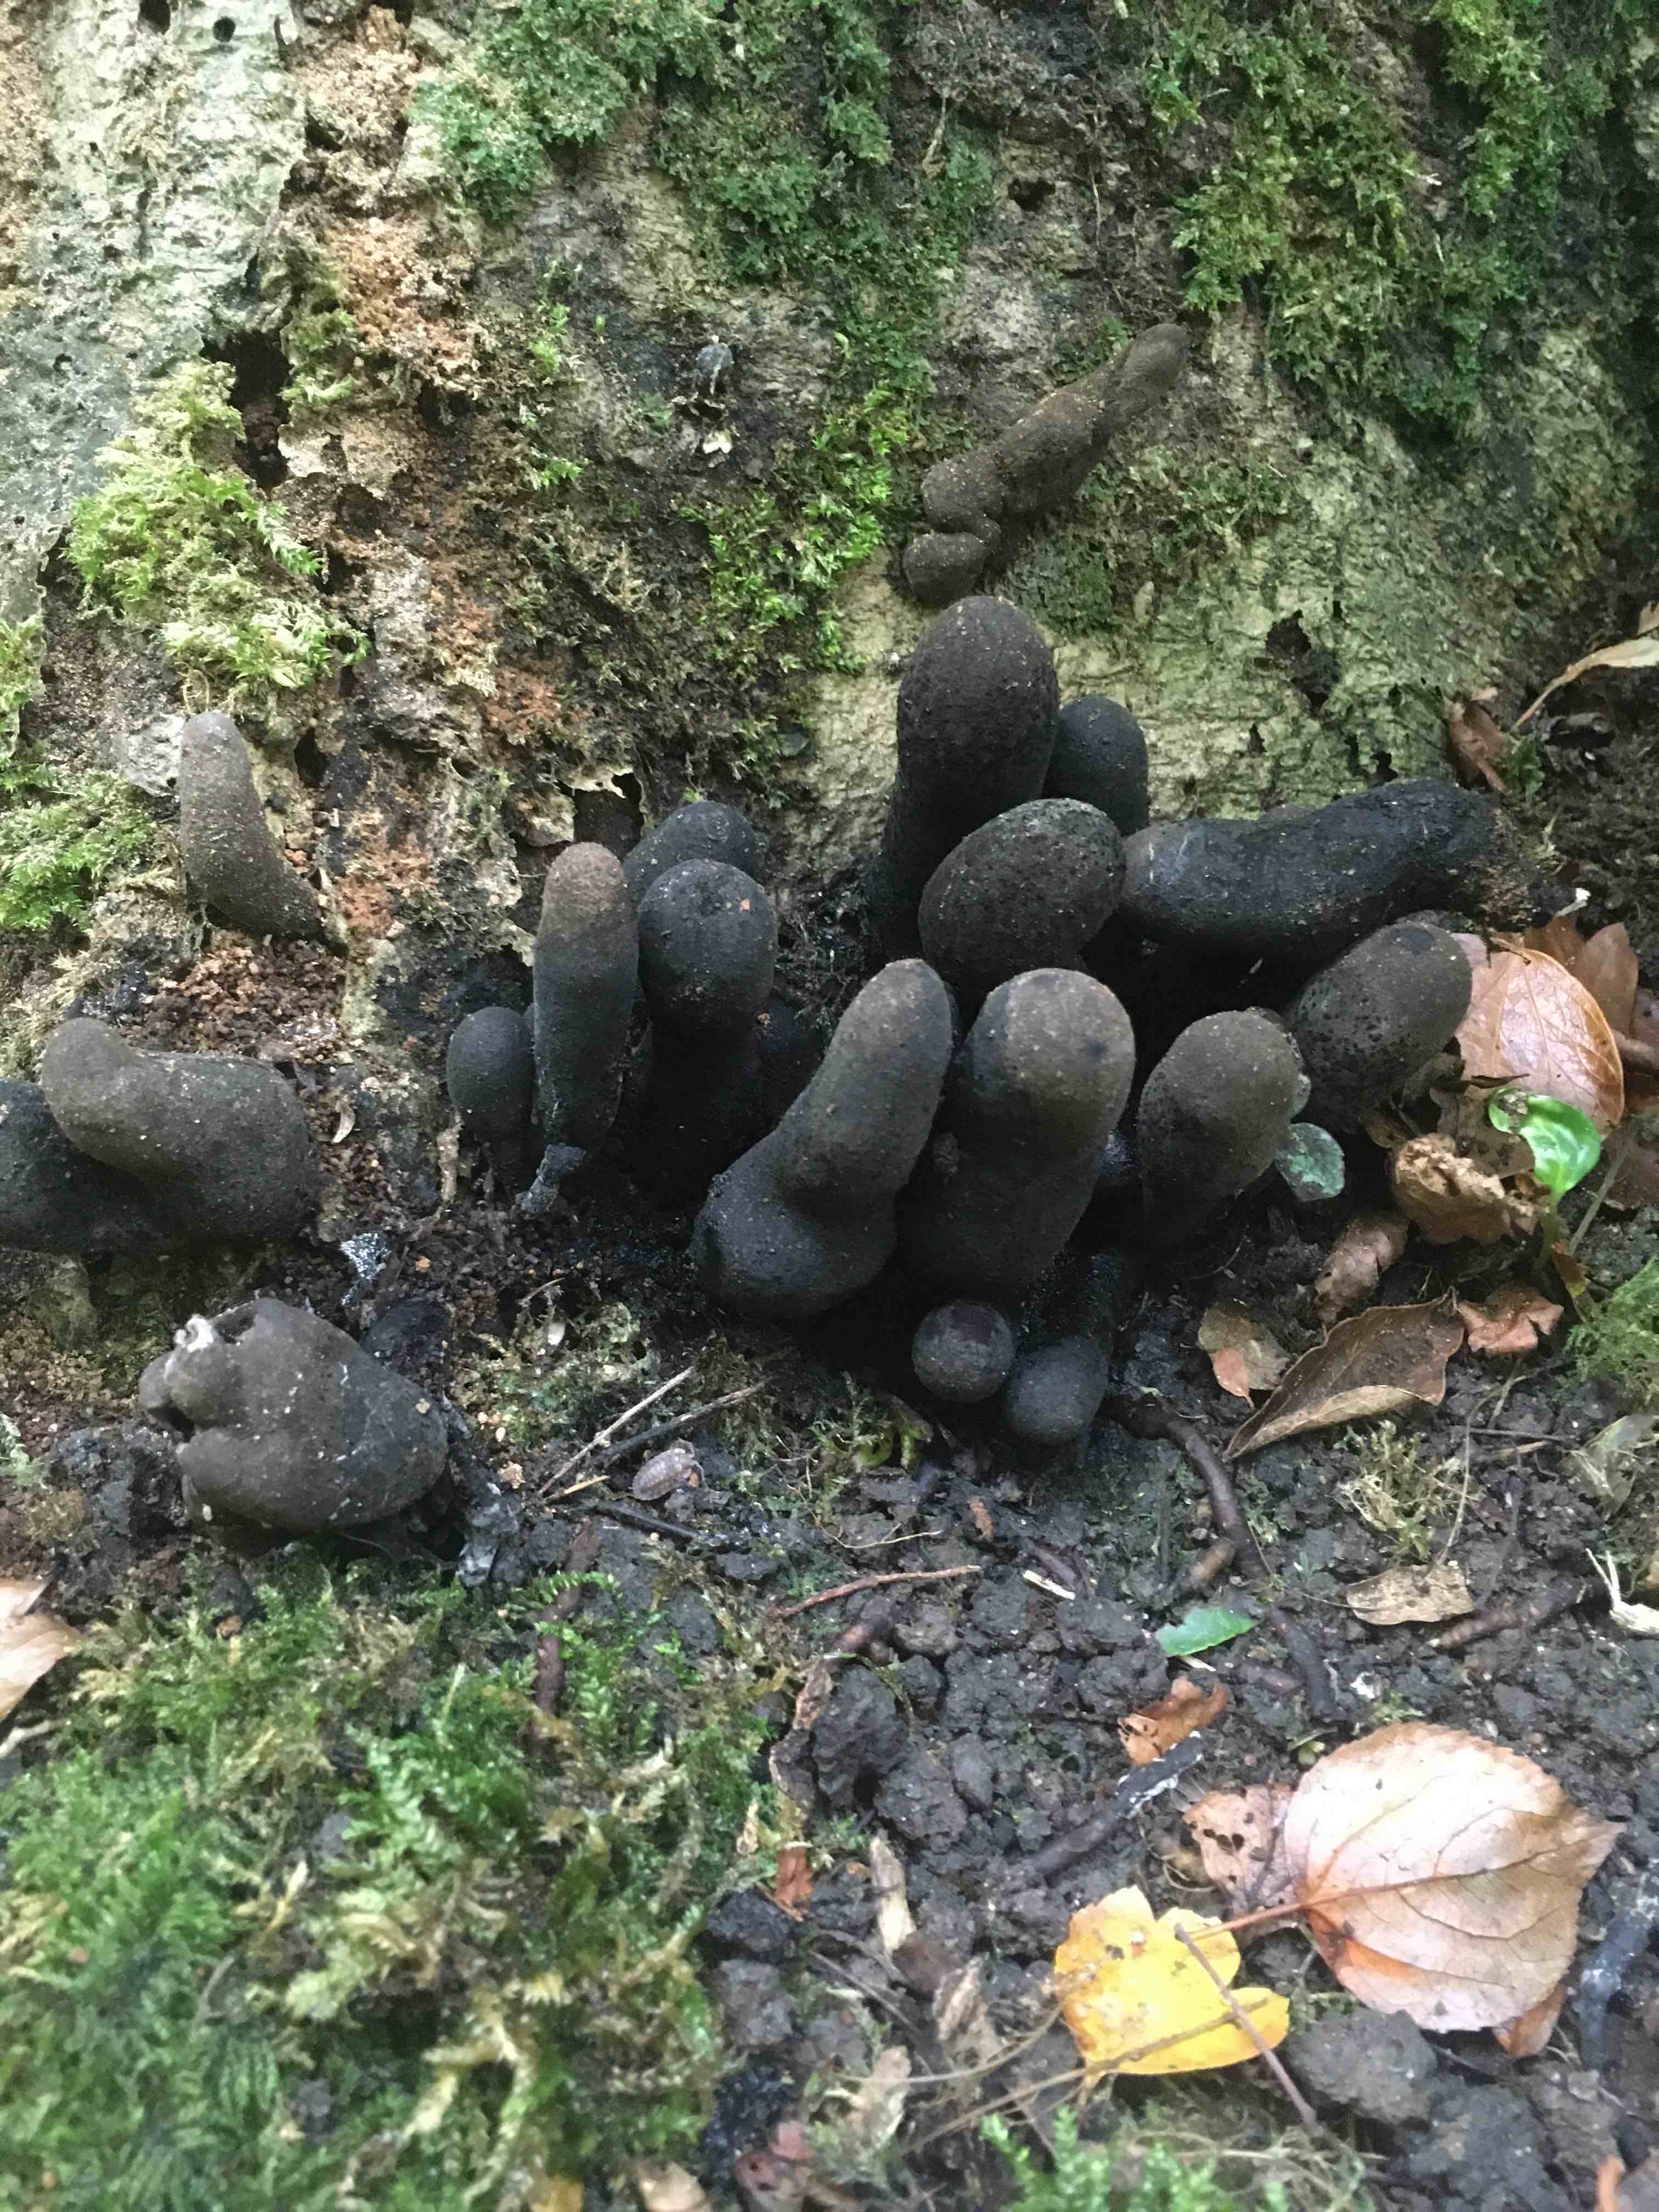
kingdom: Fungi
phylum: Ascomycota
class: Sordariomycetes
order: Xylariales
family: Xylariaceae
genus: Xylaria
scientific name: Xylaria polymorpha
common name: kølle-stødsvamp
